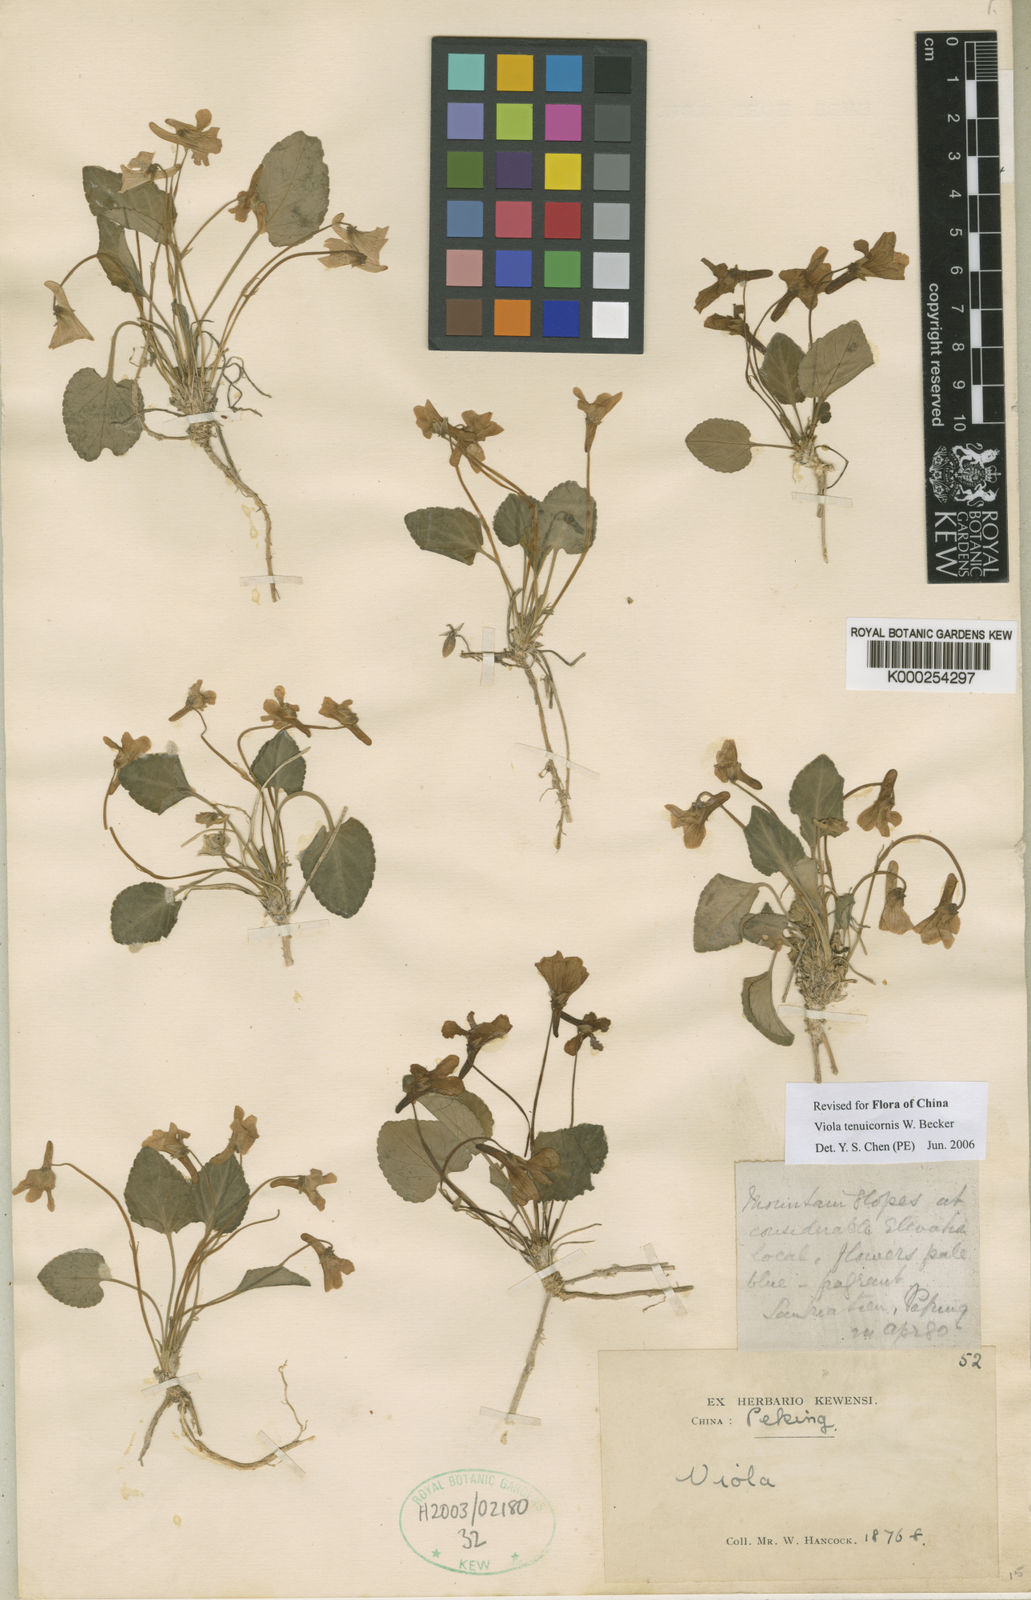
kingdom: Plantae
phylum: Tracheophyta
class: Magnoliopsida
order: Malpighiales
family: Violaceae
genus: Viola
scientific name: Viola hancockii
